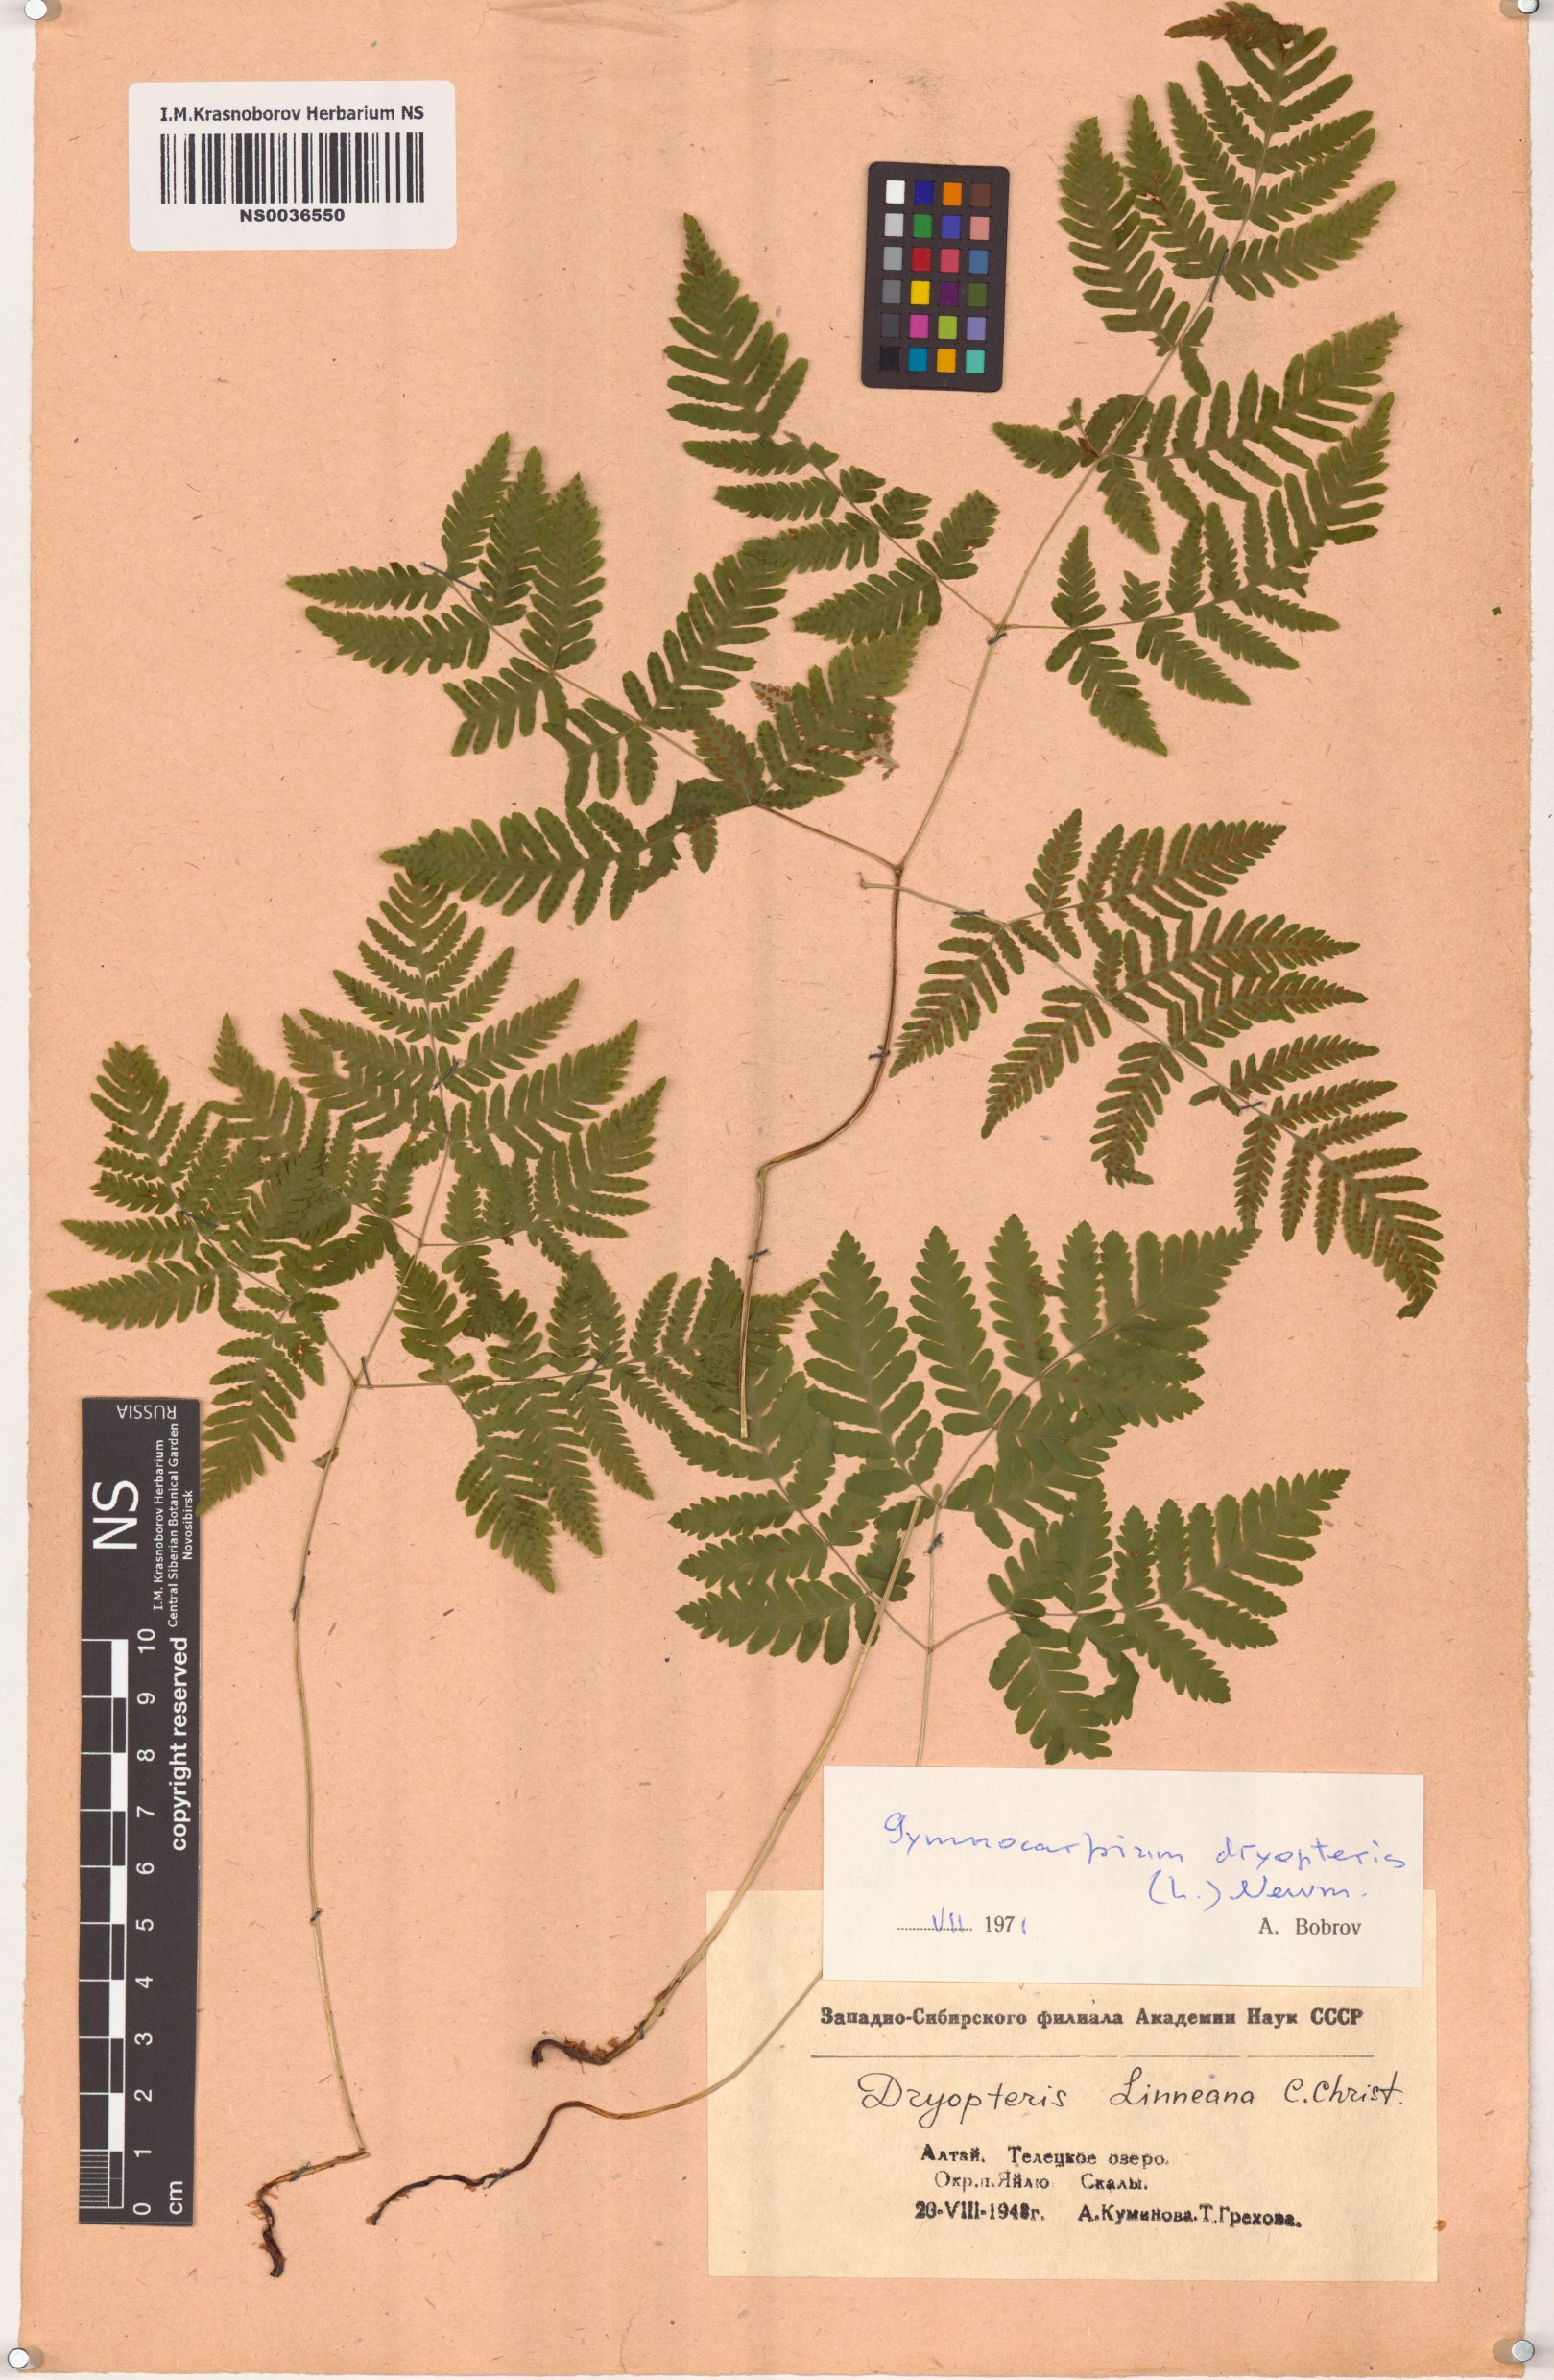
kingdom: Plantae
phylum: Tracheophyta
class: Polypodiopsida
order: Polypodiales
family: Cystopteridaceae
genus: Gymnocarpium
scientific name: Gymnocarpium dryopteris
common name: Oak fern
